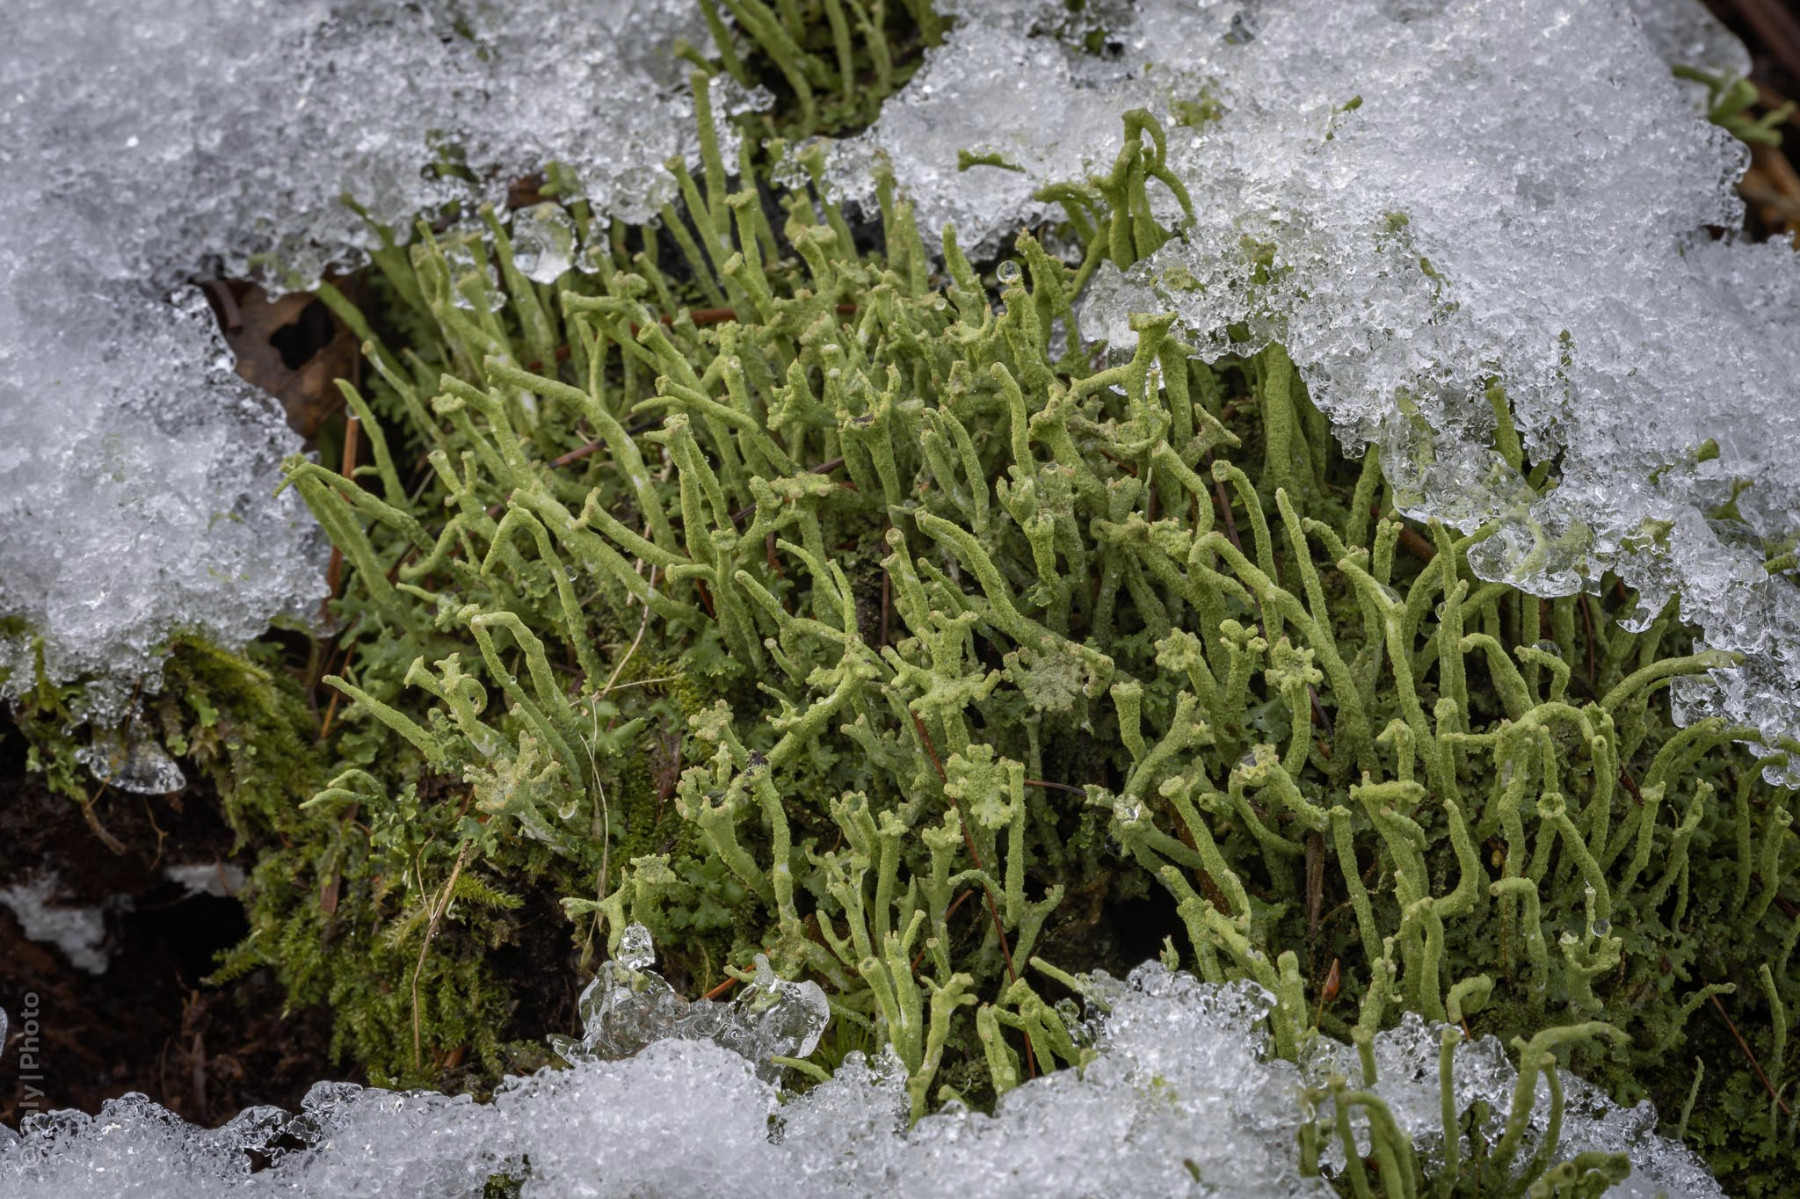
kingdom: Fungi
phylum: Ascomycota
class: Lecanoromycetes
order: Lecanorales
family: Cladoniaceae
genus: Cladonia
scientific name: Cladonia ochrochlora
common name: stød-bægerlav
